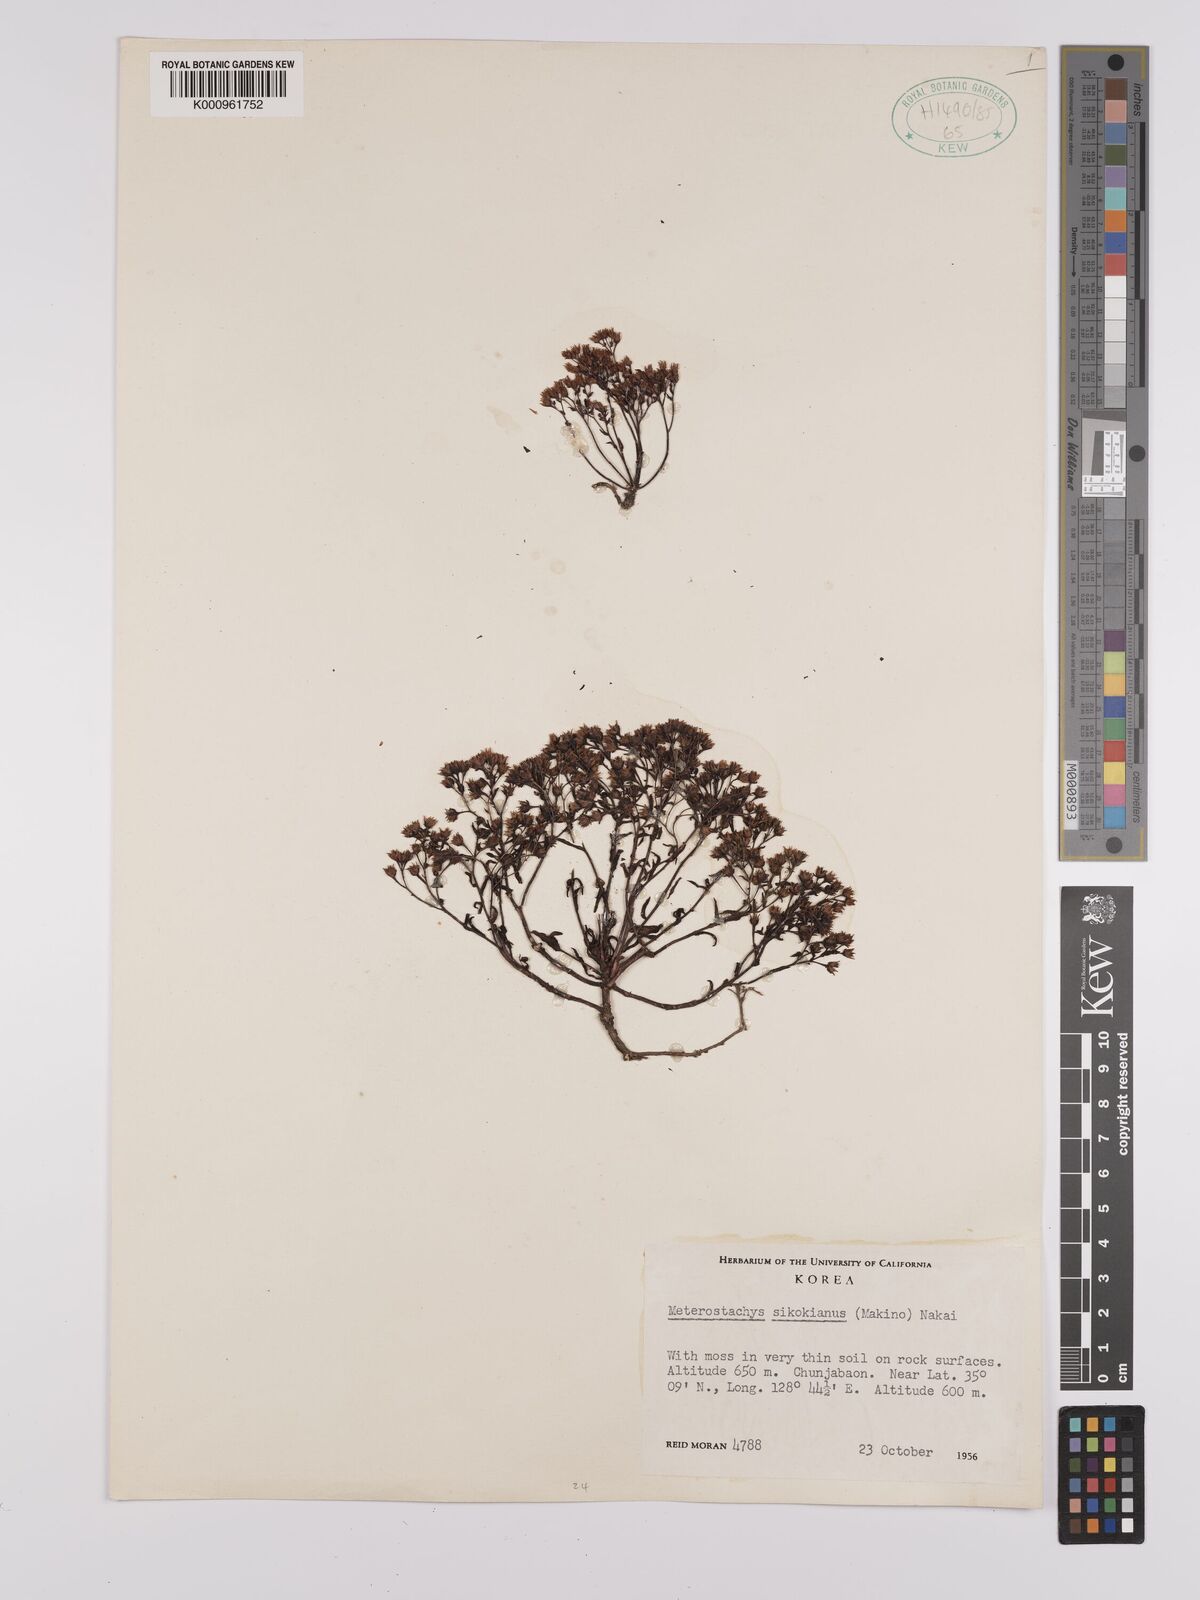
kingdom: Plantae
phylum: Tracheophyta
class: Magnoliopsida
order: Saxifragales
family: Crassulaceae
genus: Meterostachys
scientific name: Meterostachys sikokianus
